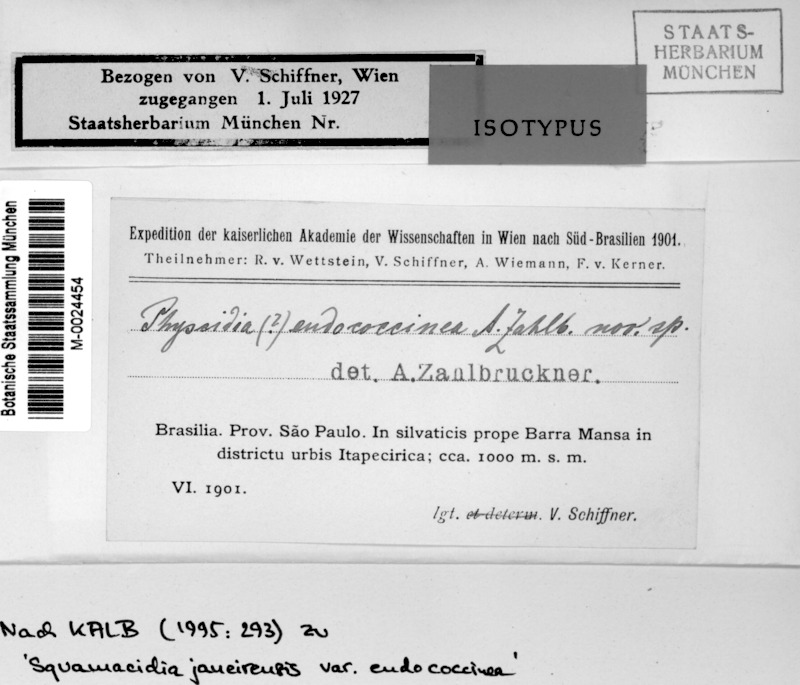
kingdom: Fungi
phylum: Ascomycota
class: Lecanoromycetes
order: Lecanorales
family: Ramalinaceae
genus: Squamacidia
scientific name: Squamacidia janeirensis
